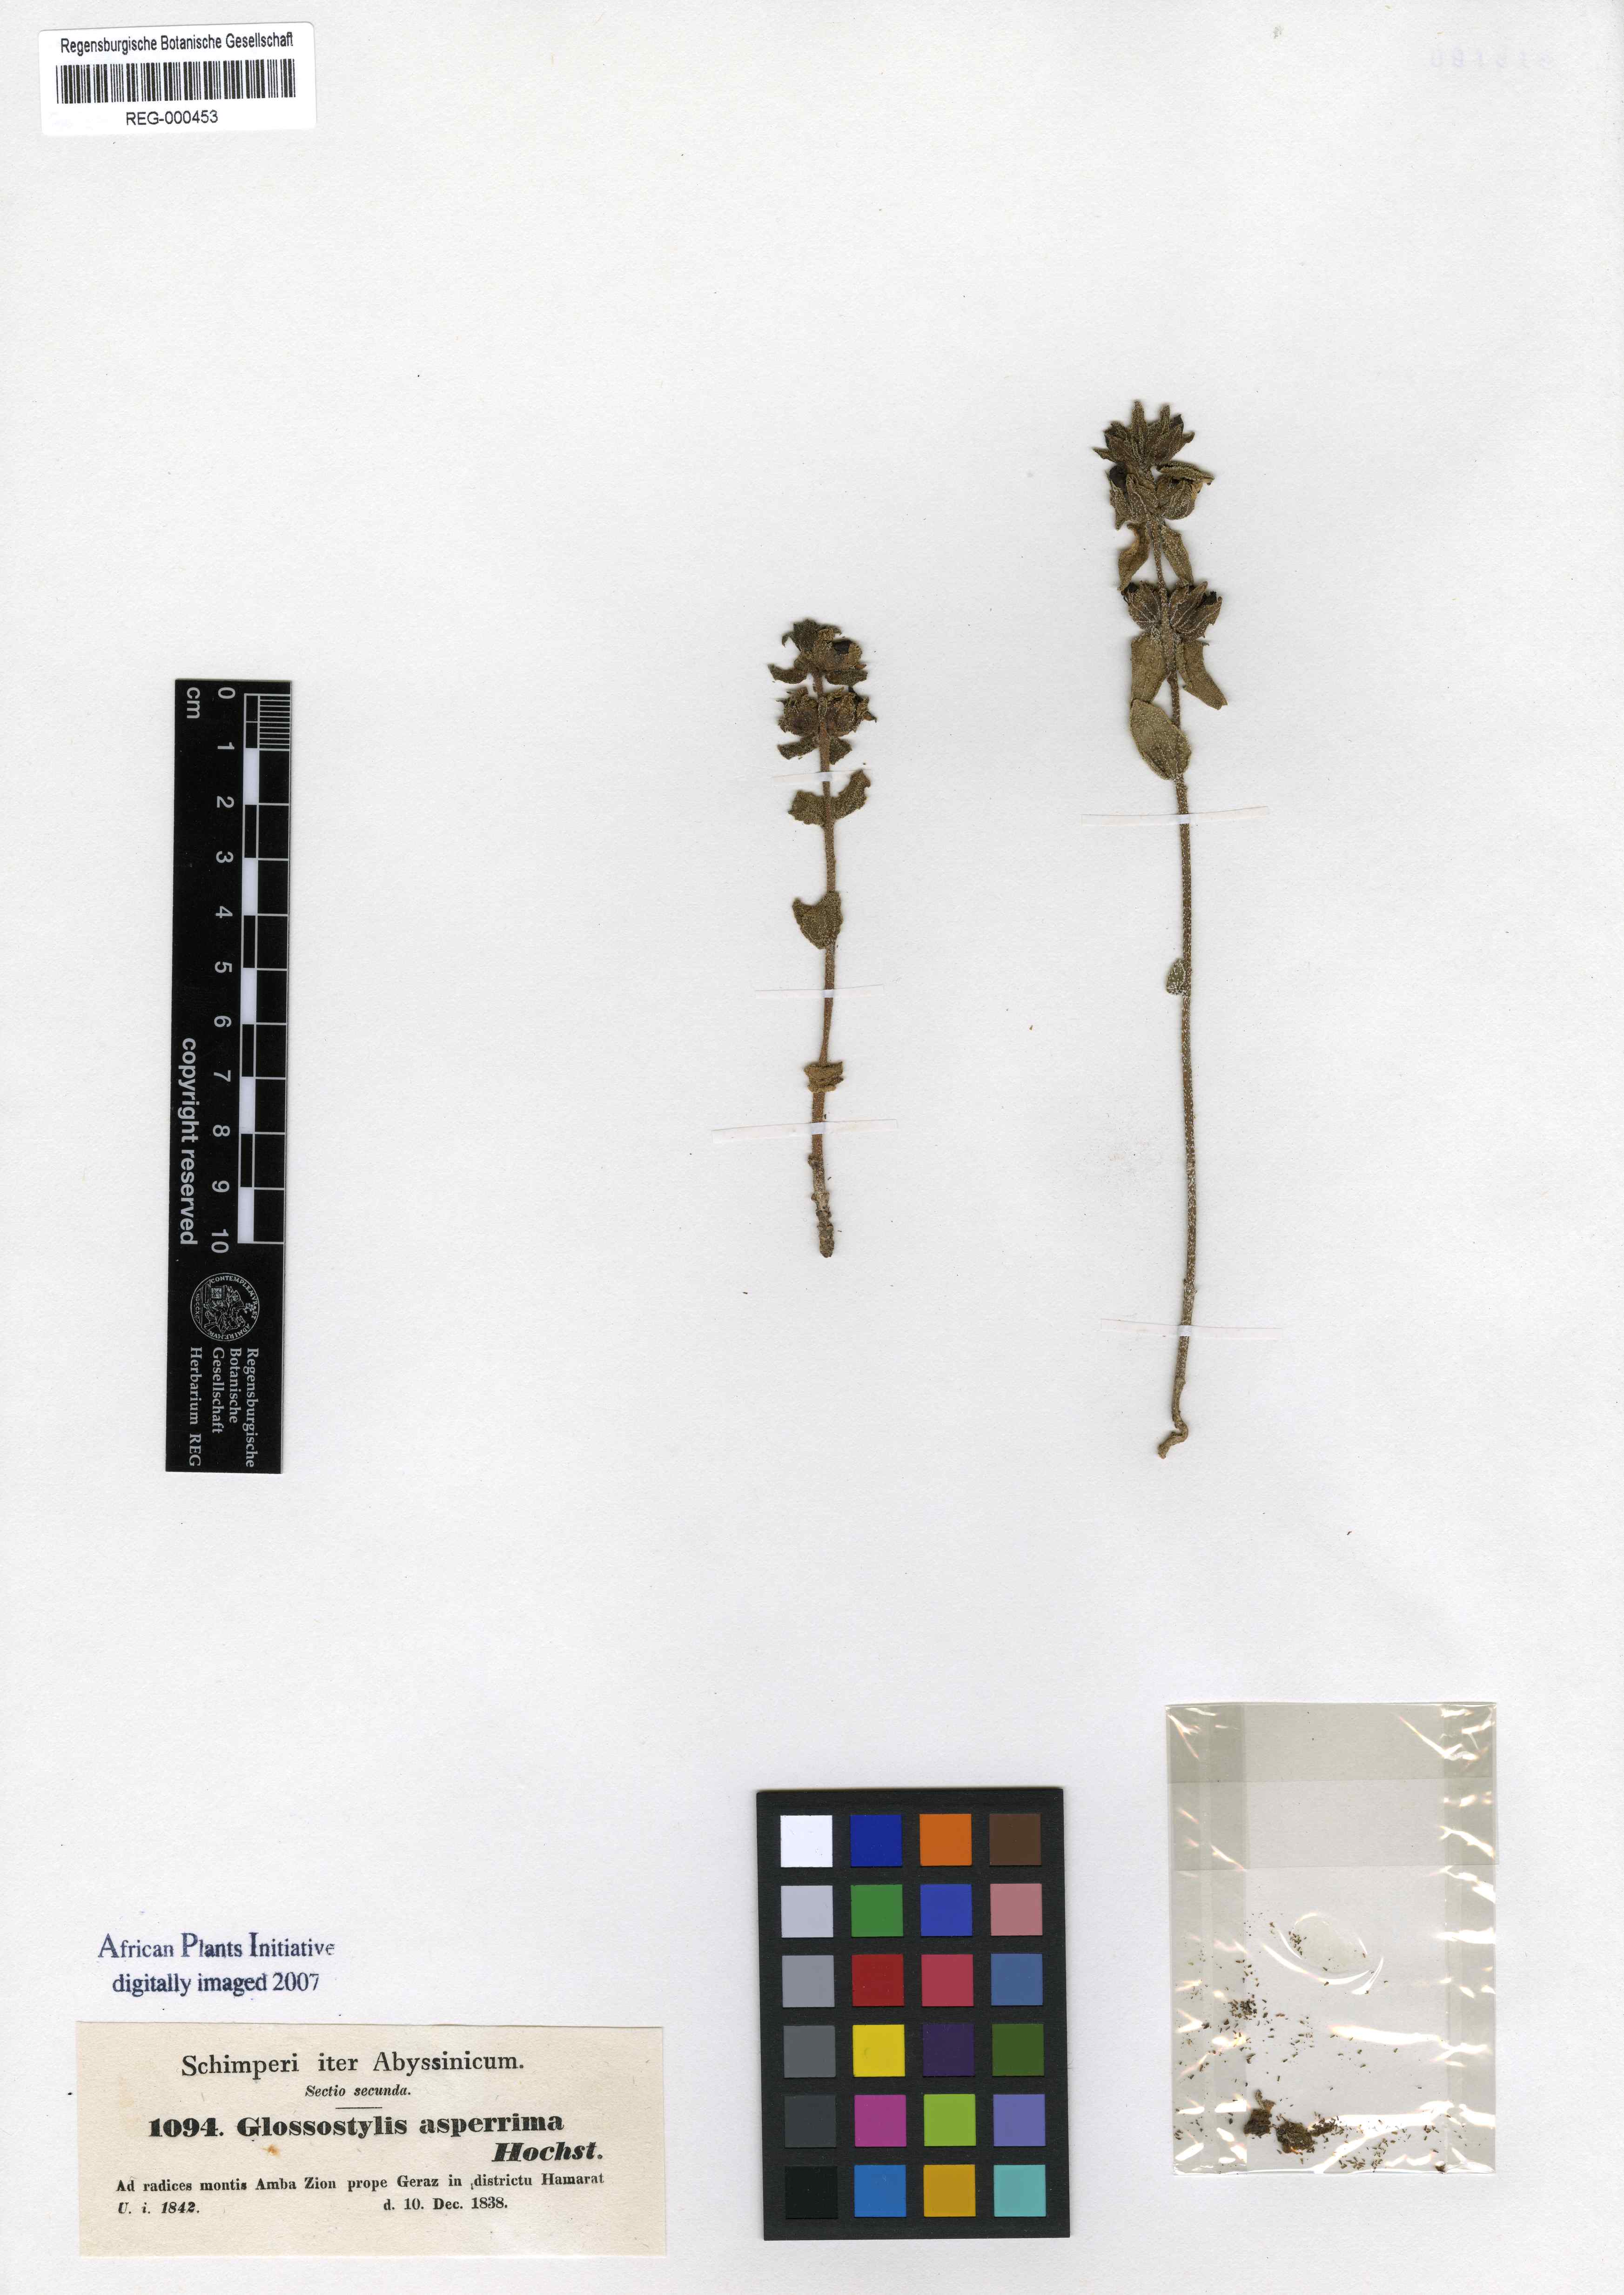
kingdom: Plantae
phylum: Tracheophyta
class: Magnoliopsida
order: Lamiales
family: Orobanchaceae
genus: Alectra
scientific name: Alectra asperrima
